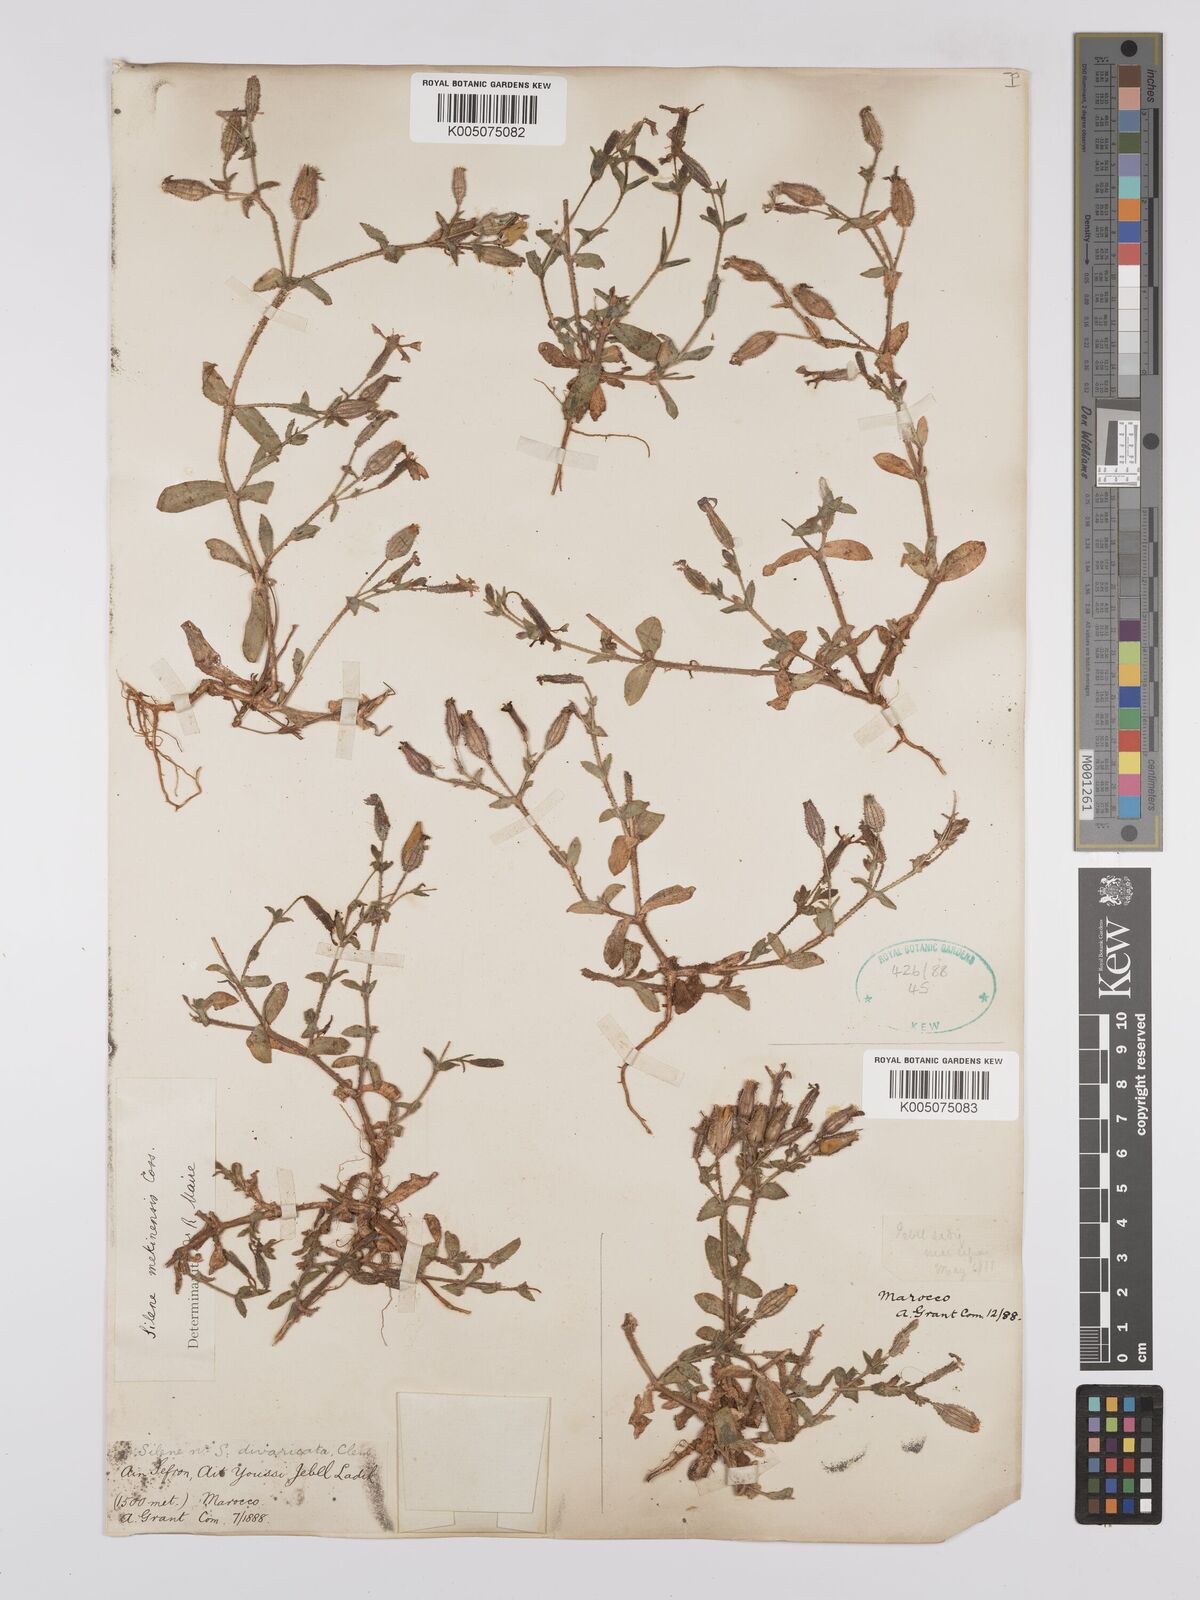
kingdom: Plantae
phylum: Tracheophyta
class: Magnoliopsida
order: Caryophyllales
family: Caryophyllaceae
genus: Silene
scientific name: Silene mekinensis
